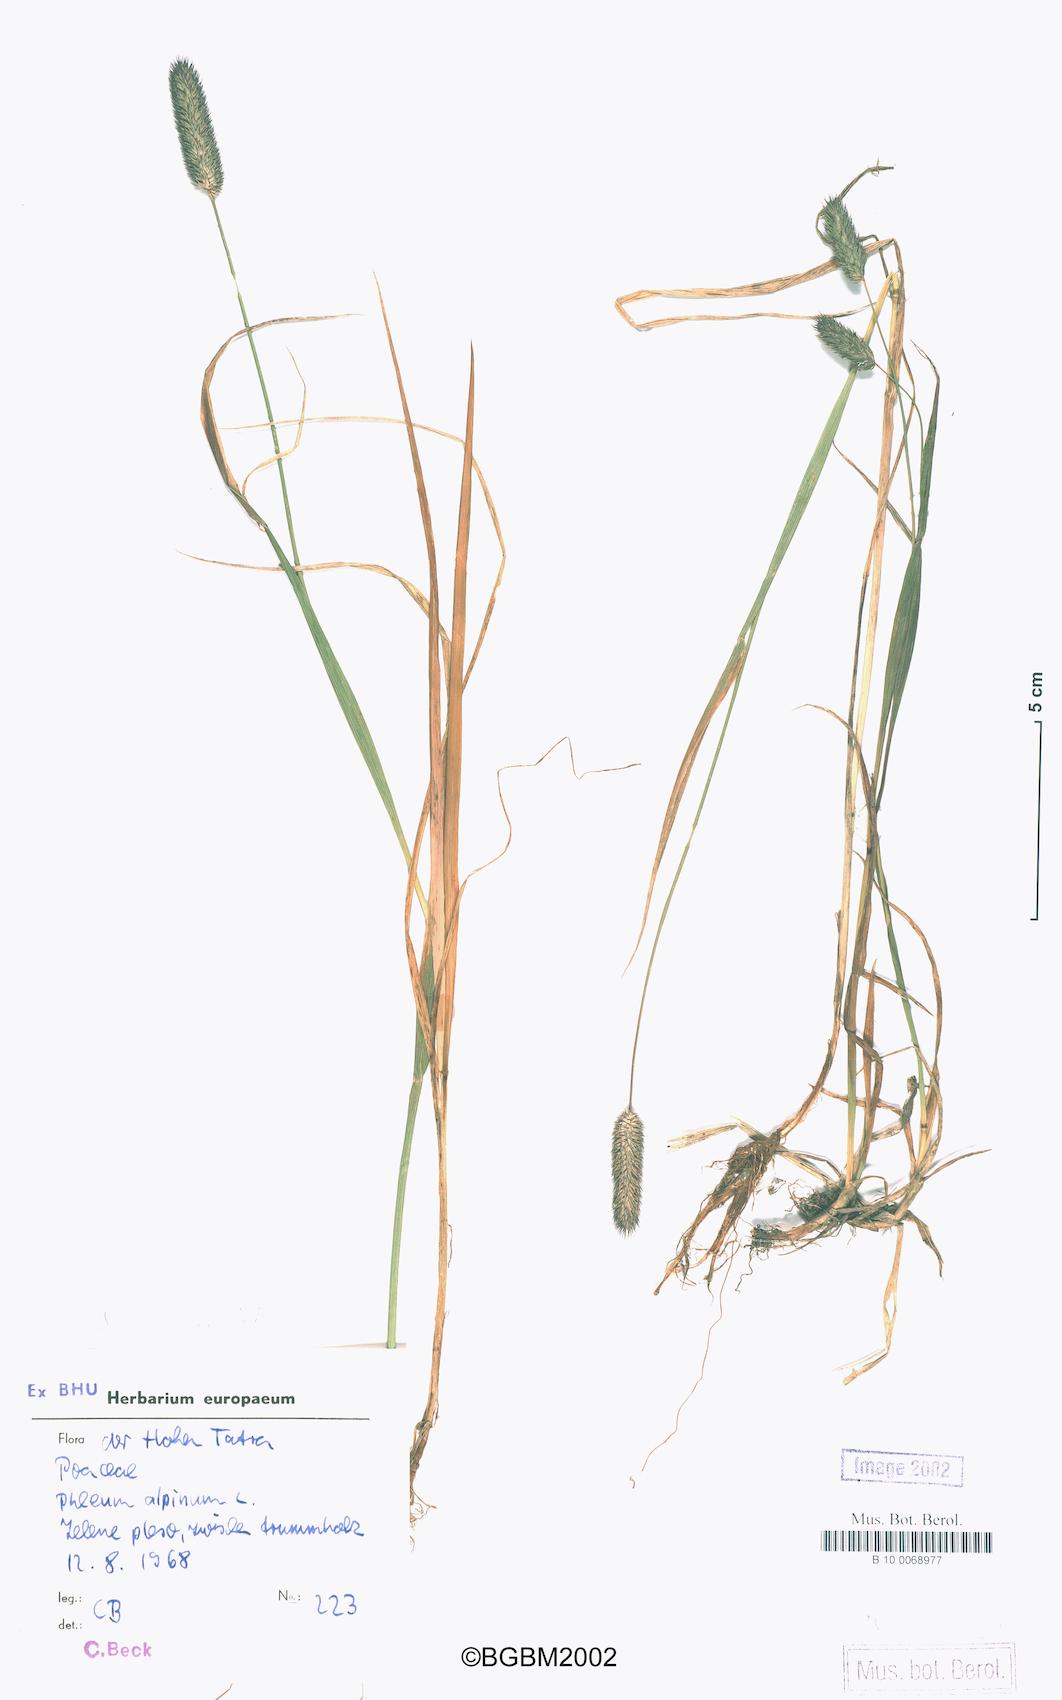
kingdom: Plantae
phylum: Tracheophyta
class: Liliopsida
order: Poales
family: Poaceae
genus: Phleum
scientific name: Phleum alpinum
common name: Alpine cat's-tail
